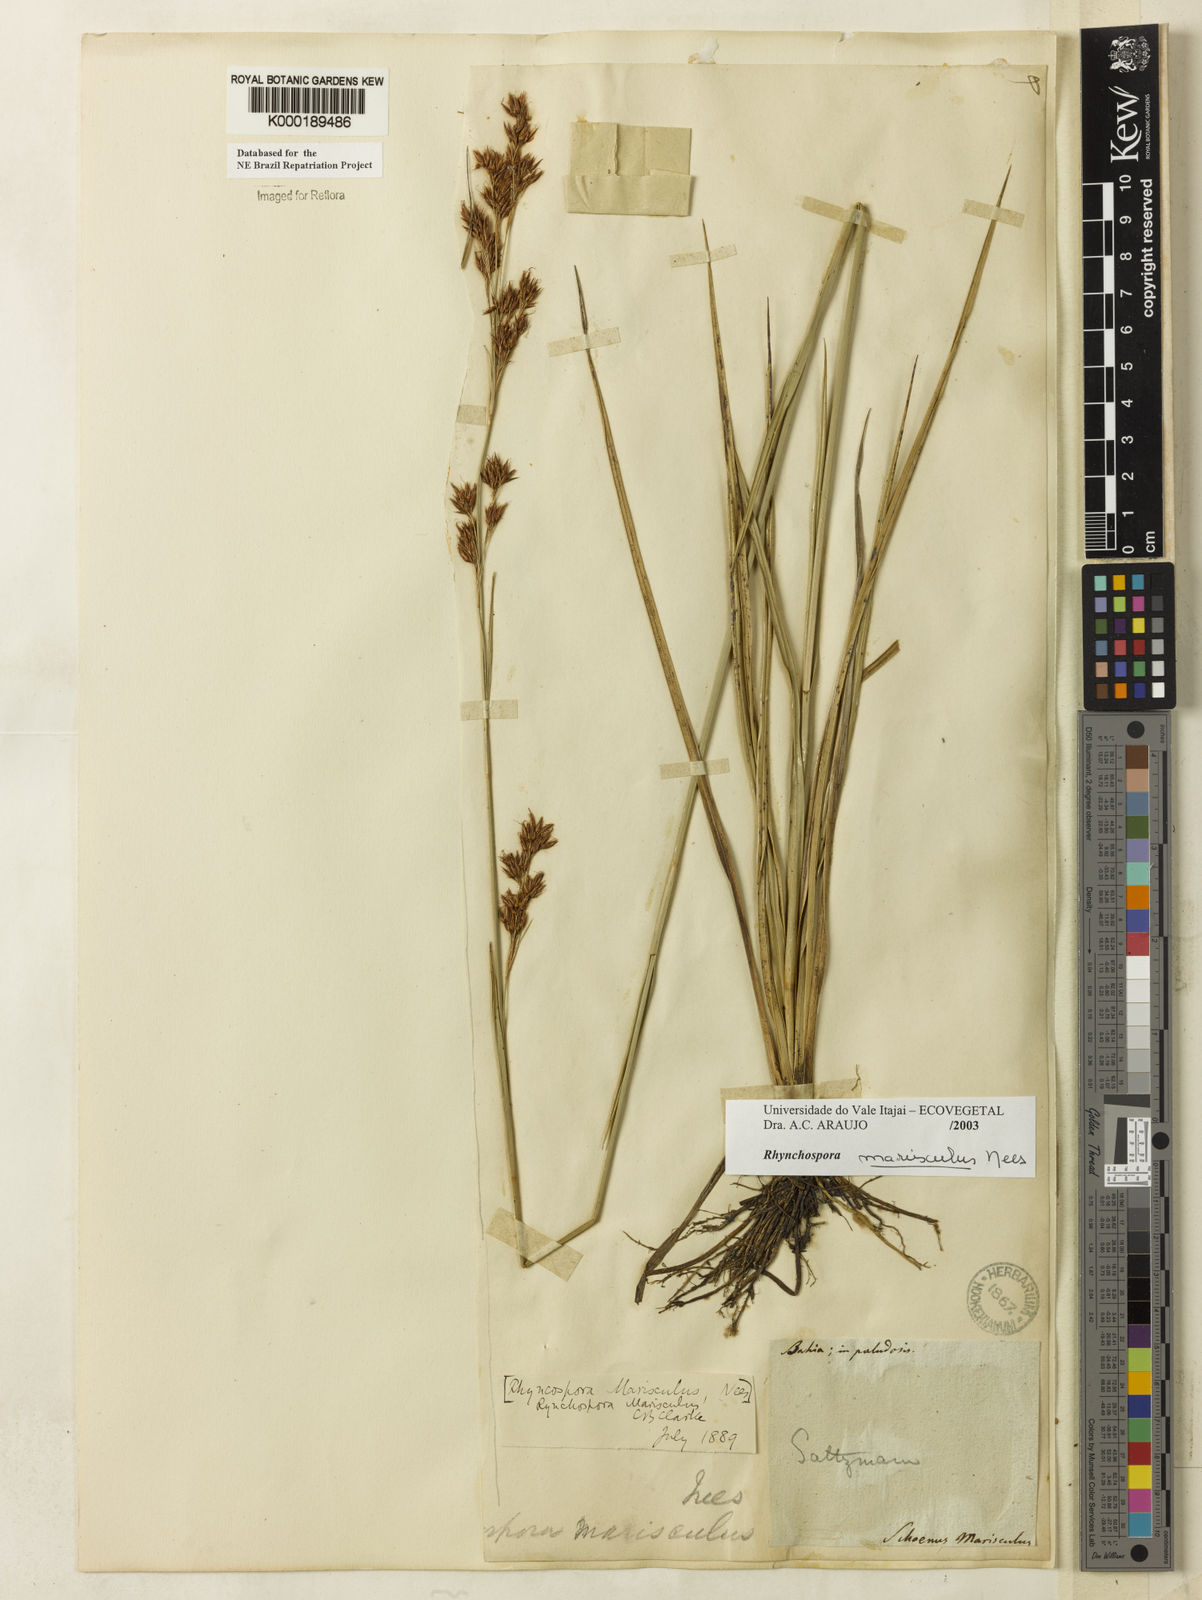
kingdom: Plantae
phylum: Tracheophyta
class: Liliopsida
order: Poales
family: Cyperaceae
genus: Rhynchospora
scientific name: Rhynchospora marisculus
